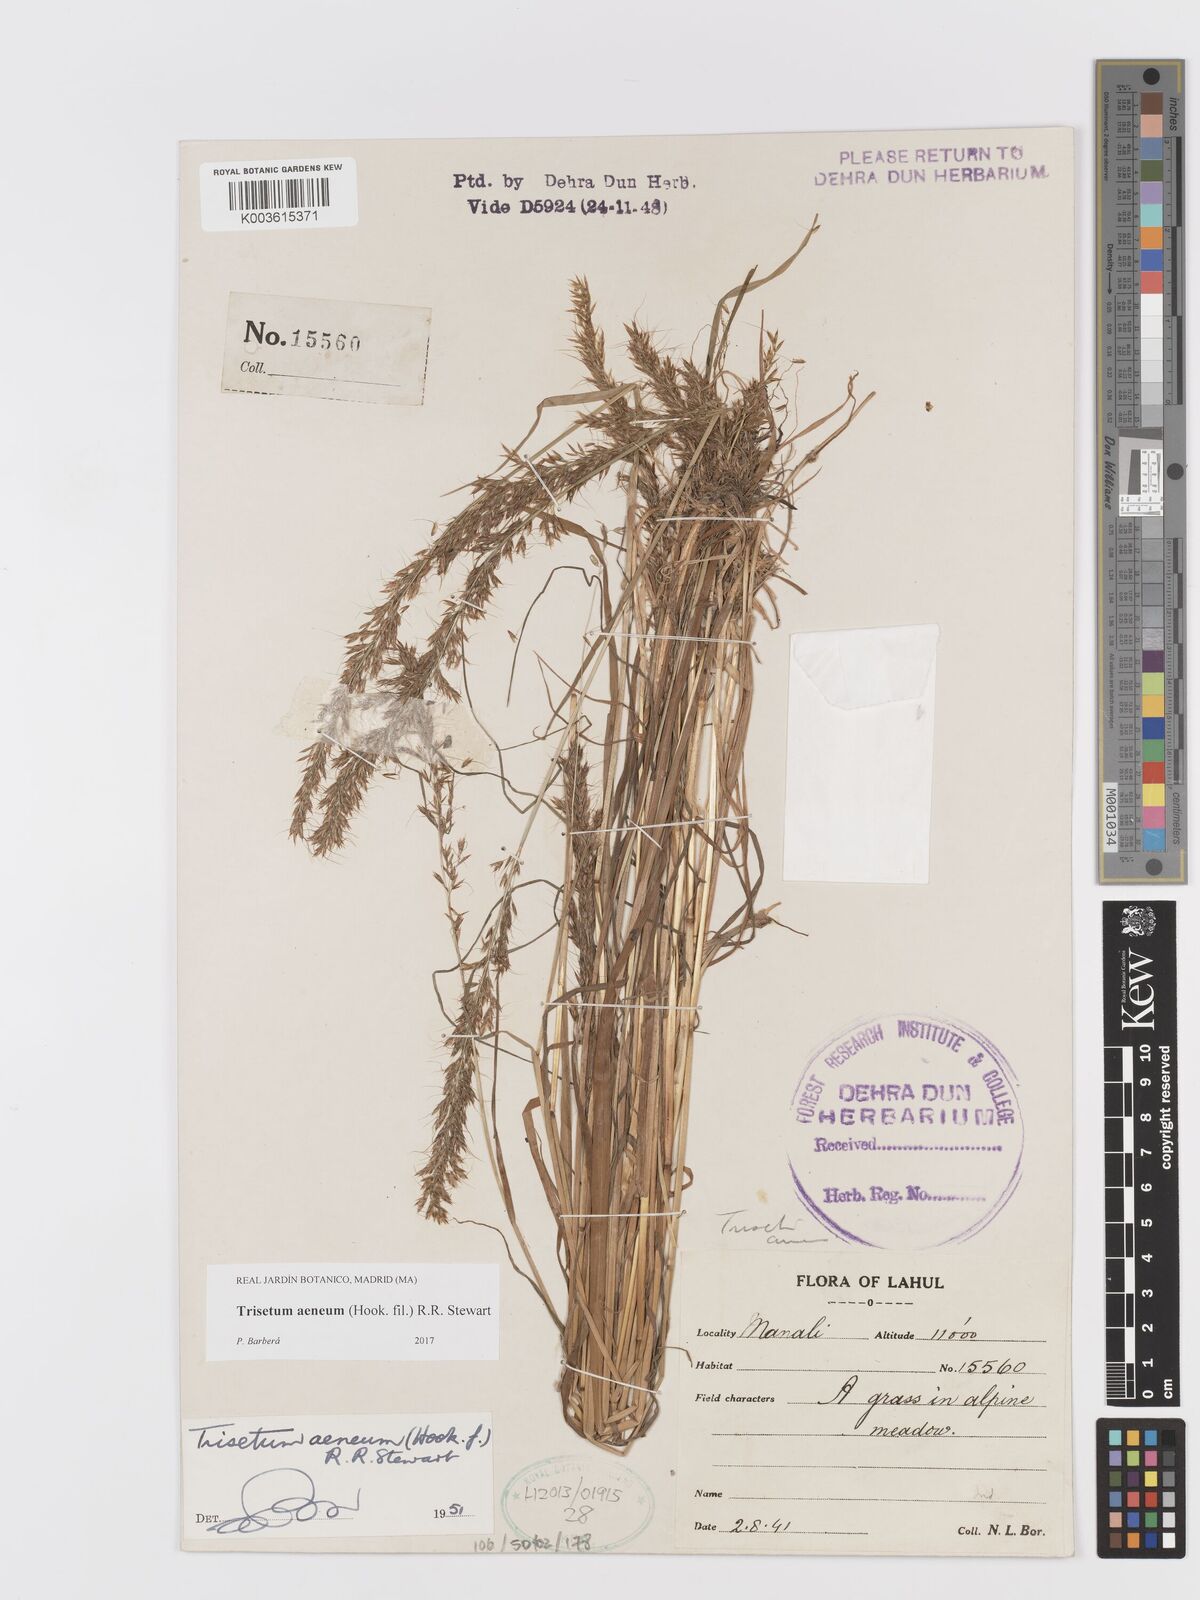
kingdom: Plantae
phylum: Tracheophyta
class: Liliopsida
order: Poales
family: Poaceae
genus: Sibirotrisetum
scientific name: Sibirotrisetum aeneum
